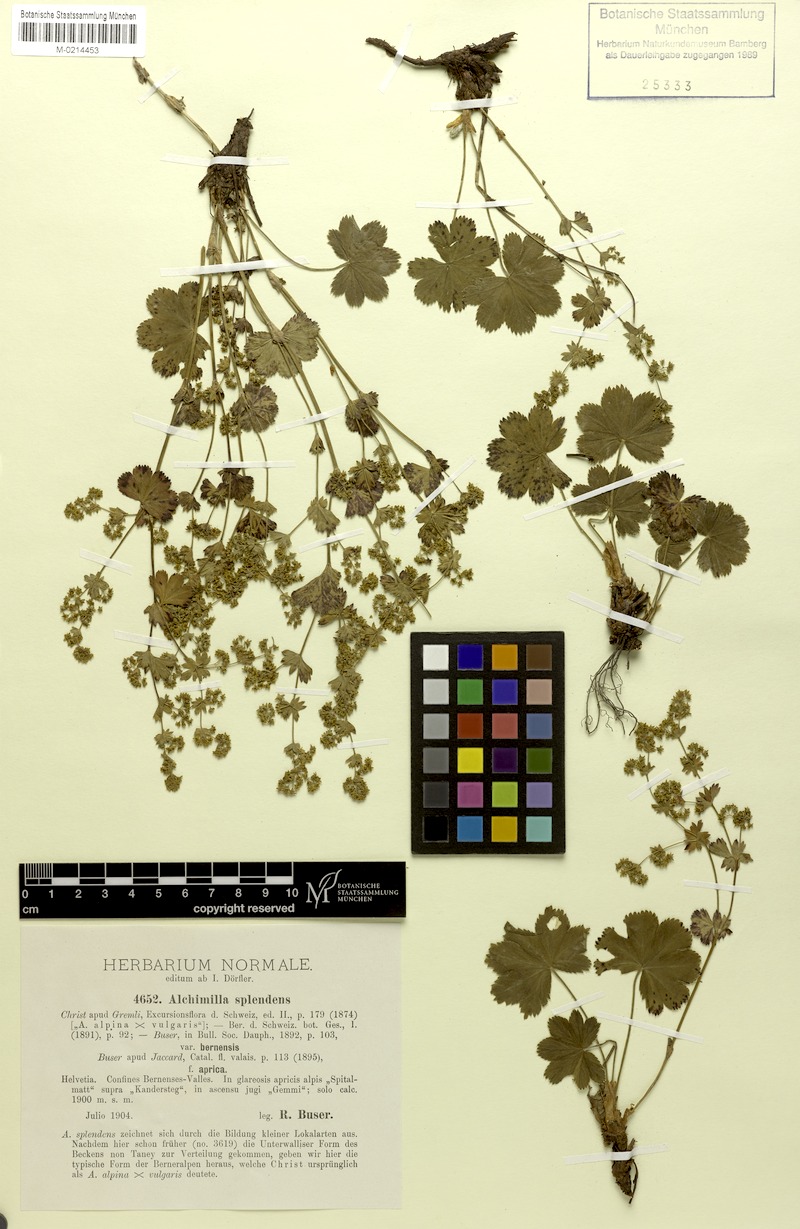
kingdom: Plantae
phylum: Tracheophyta
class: Magnoliopsida
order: Rosales
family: Rosaceae
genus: Alchemilla
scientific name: Alchemilla splendens
